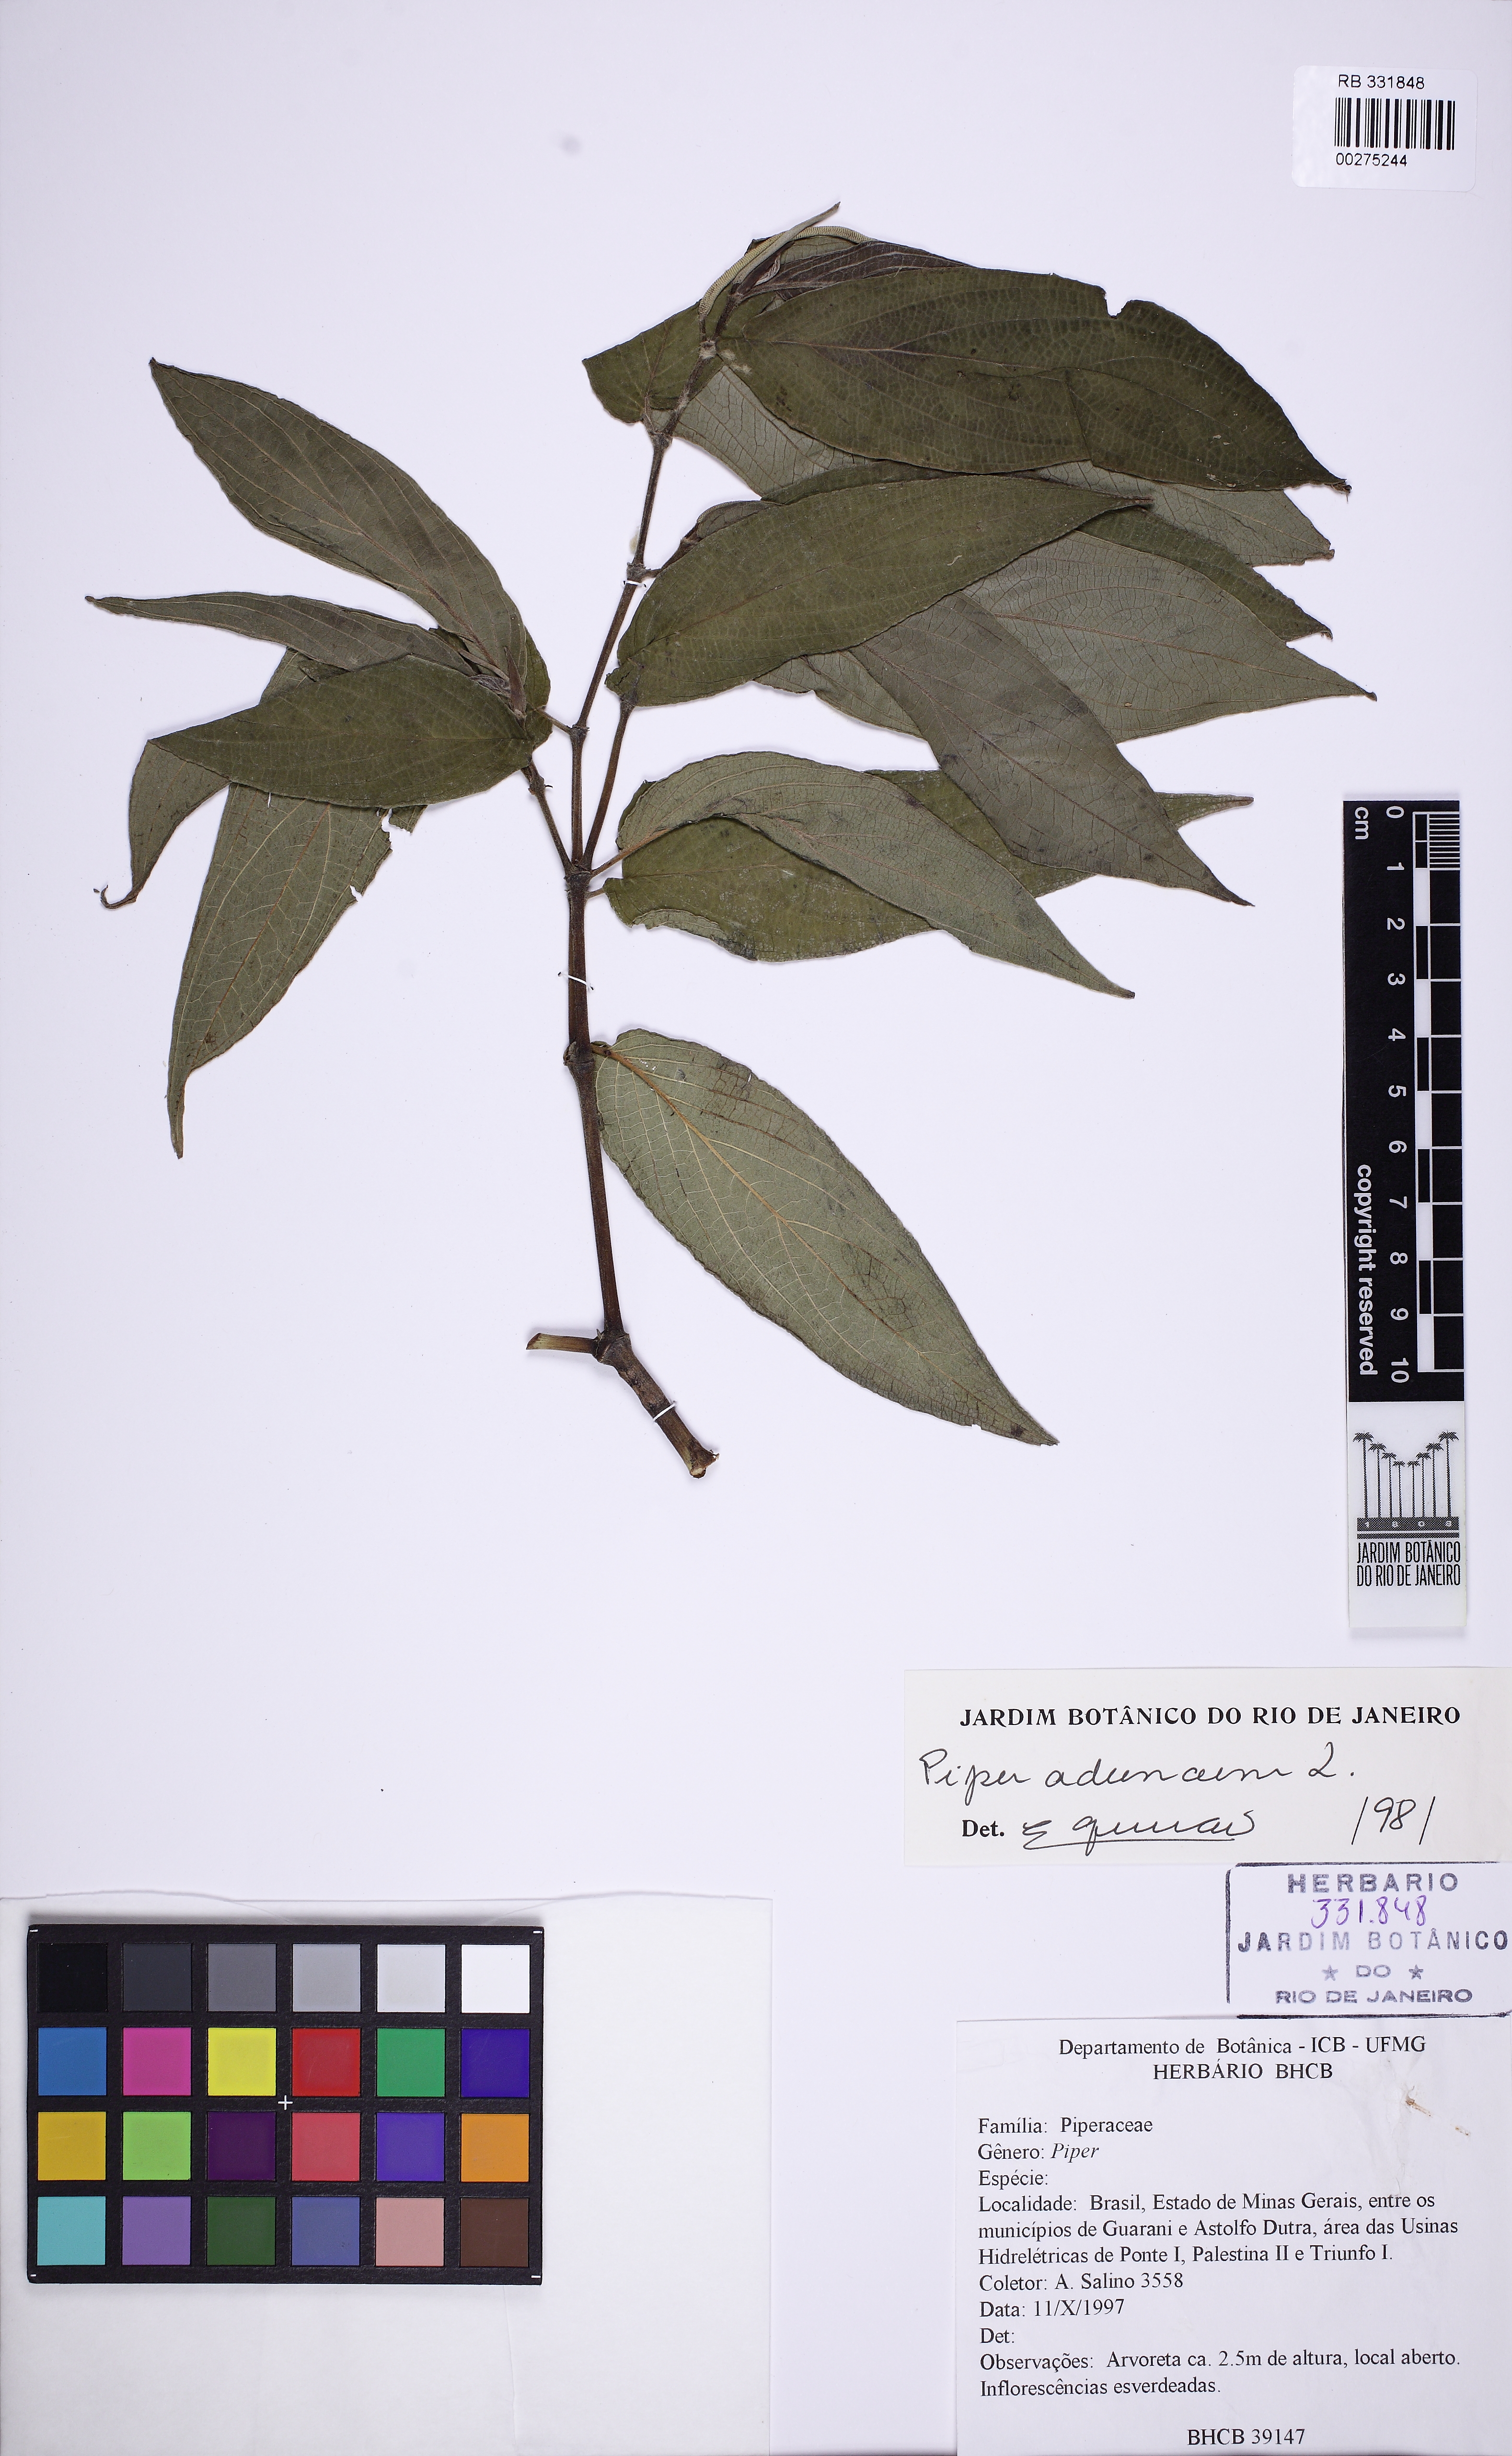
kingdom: Plantae
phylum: Tracheophyta
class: Magnoliopsida
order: Piperales
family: Piperaceae
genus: Piper
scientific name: Piper aduncum
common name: Spiked pepper
